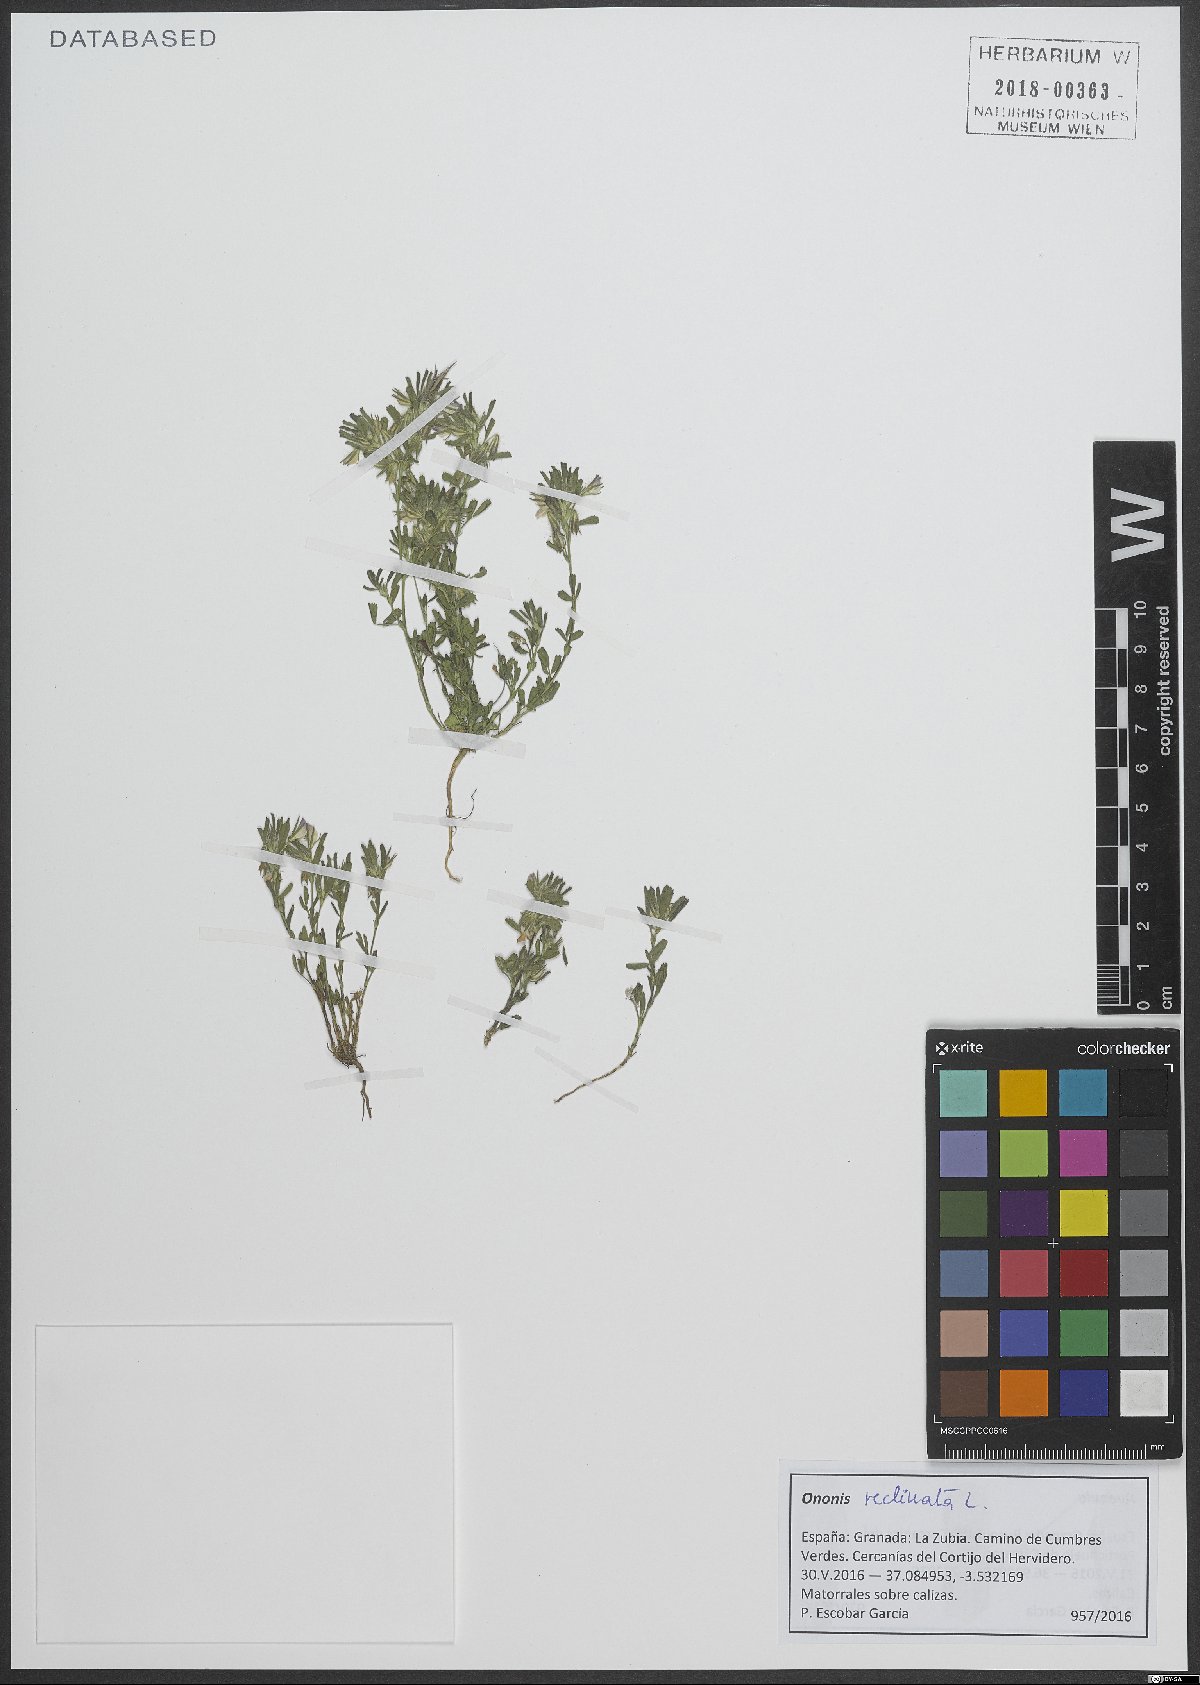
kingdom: Plantae
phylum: Tracheophyta
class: Magnoliopsida
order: Fabales
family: Fabaceae
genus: Ononis
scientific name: Ononis reclinata
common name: Small restharrow
